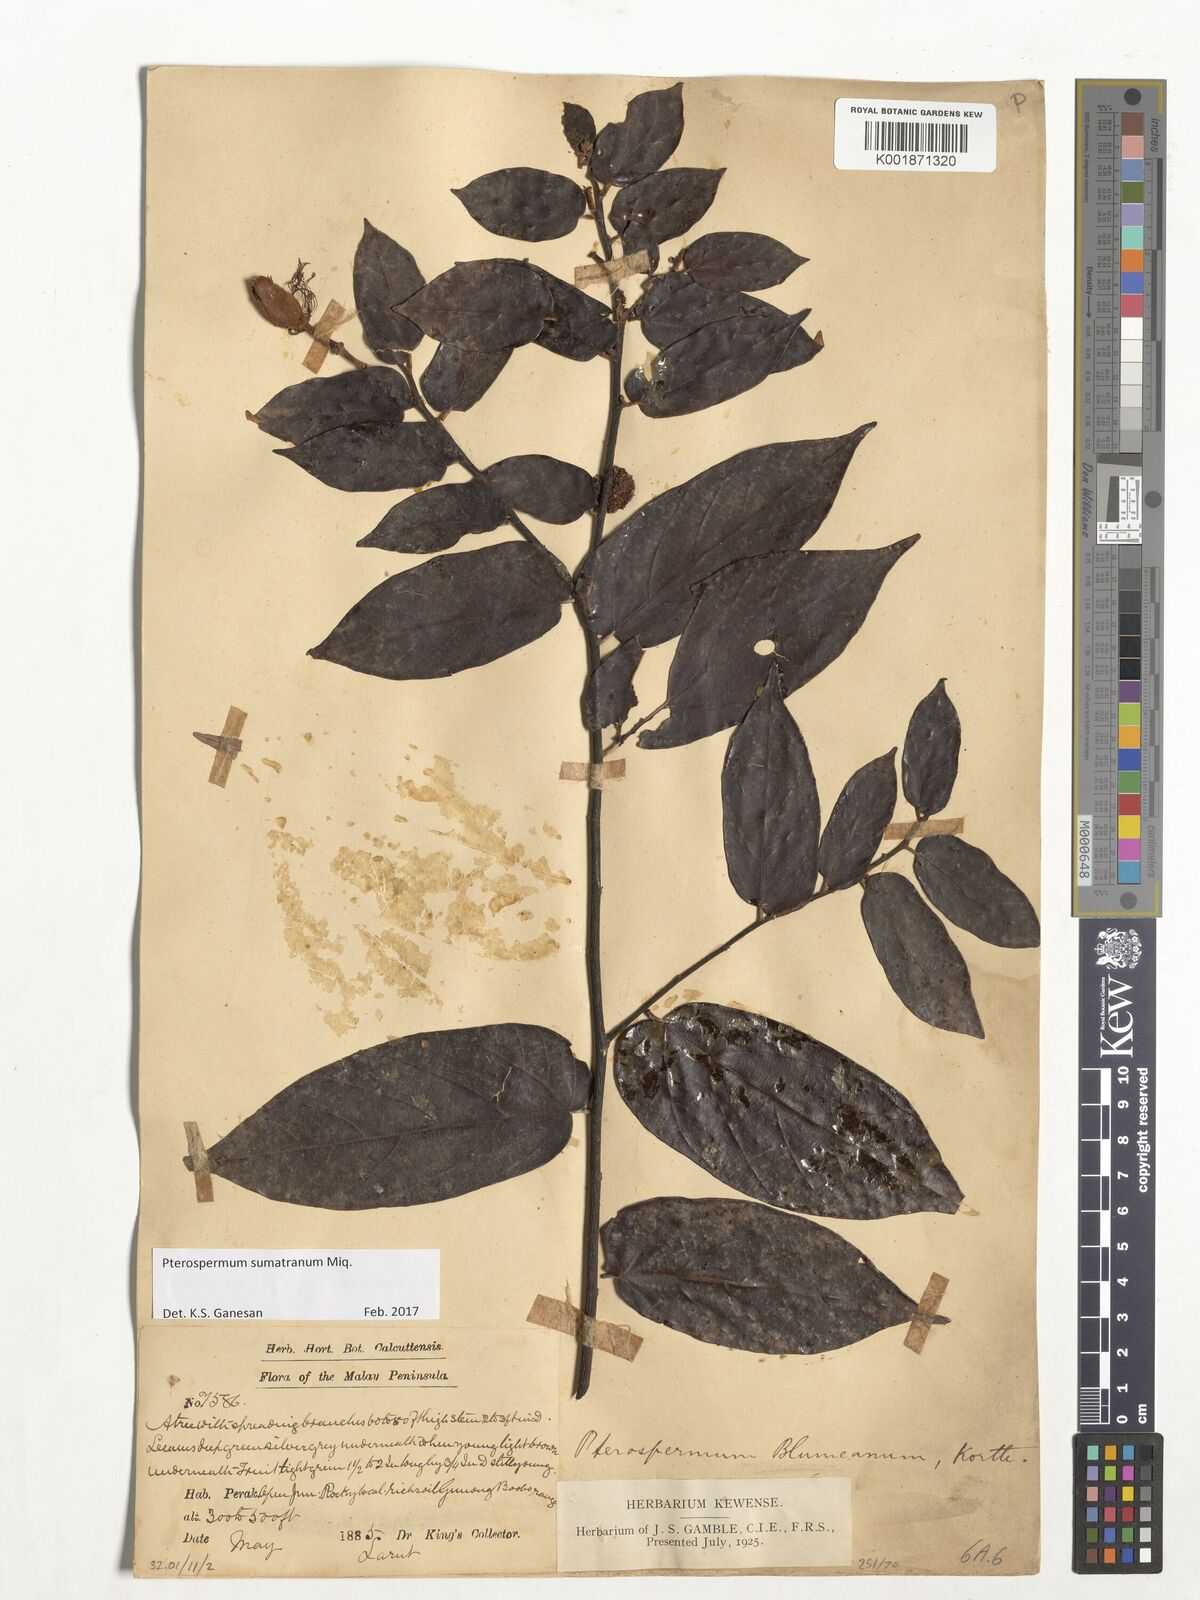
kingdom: Plantae
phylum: Tracheophyta
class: Magnoliopsida
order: Malvales
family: Malvaceae
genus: Pterospermum
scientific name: Pterospermum sumatranum
